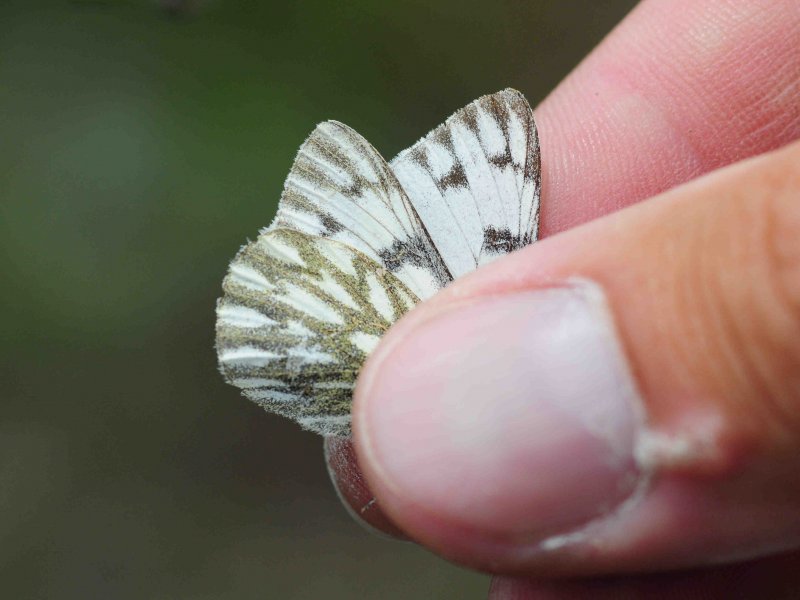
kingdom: Animalia
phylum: Arthropoda
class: Insecta
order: Lepidoptera
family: Pieridae
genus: Pontia
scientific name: Pontia occidentalis
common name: Western White
